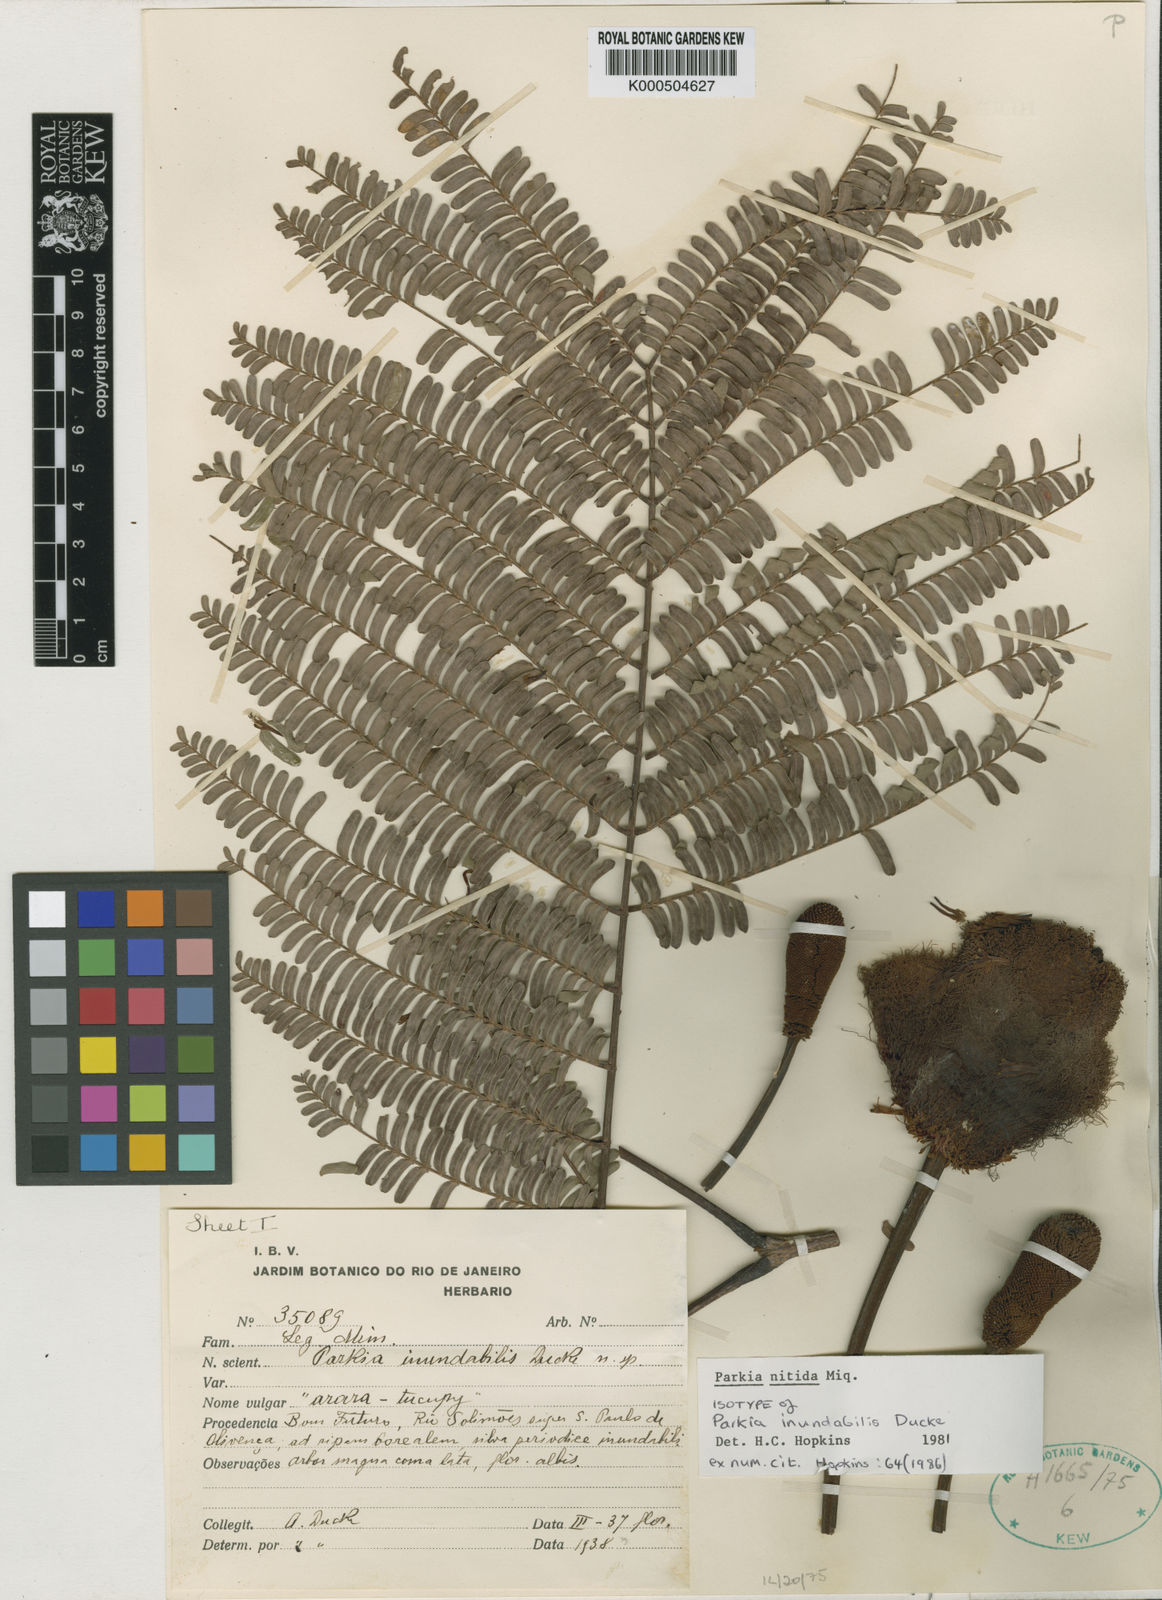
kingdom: Plantae
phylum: Tracheophyta
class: Magnoliopsida
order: Fabales
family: Fabaceae
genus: Parkia
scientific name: Parkia nitida
